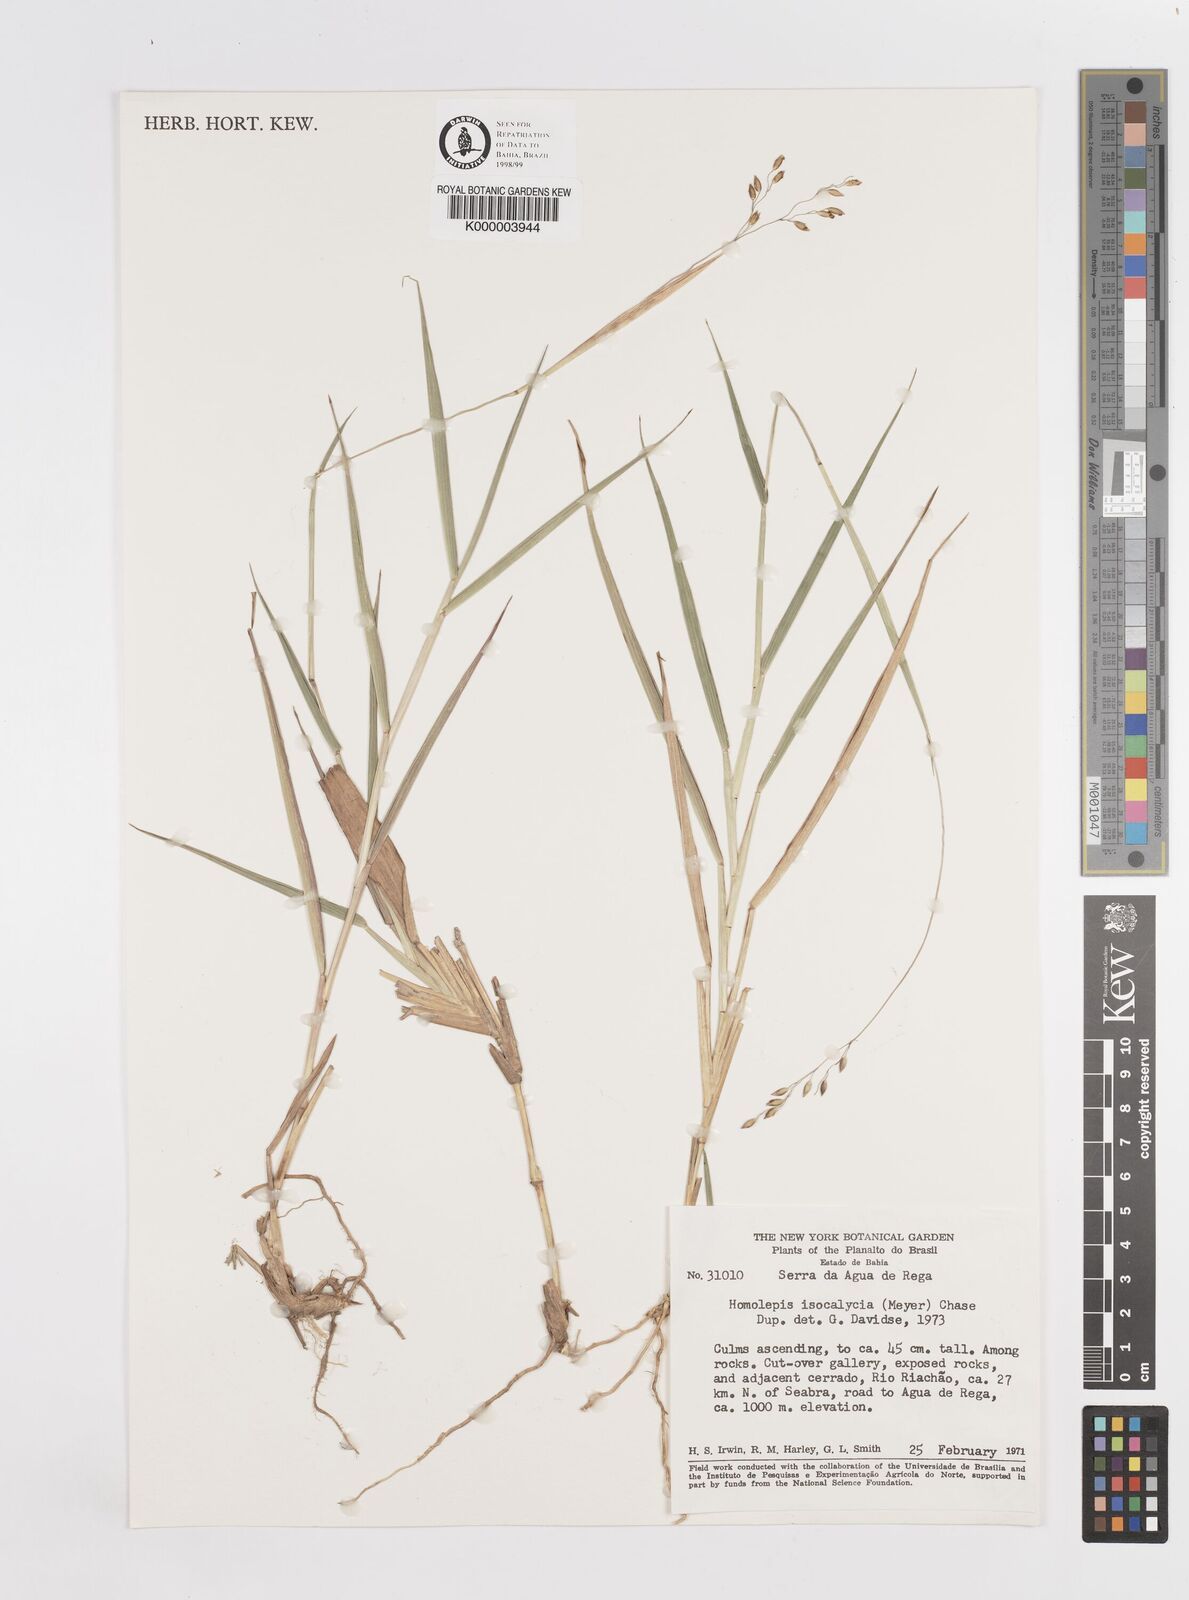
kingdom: Plantae
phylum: Tracheophyta
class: Liliopsida
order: Poales
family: Poaceae
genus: Homolepis
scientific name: Homolepis
